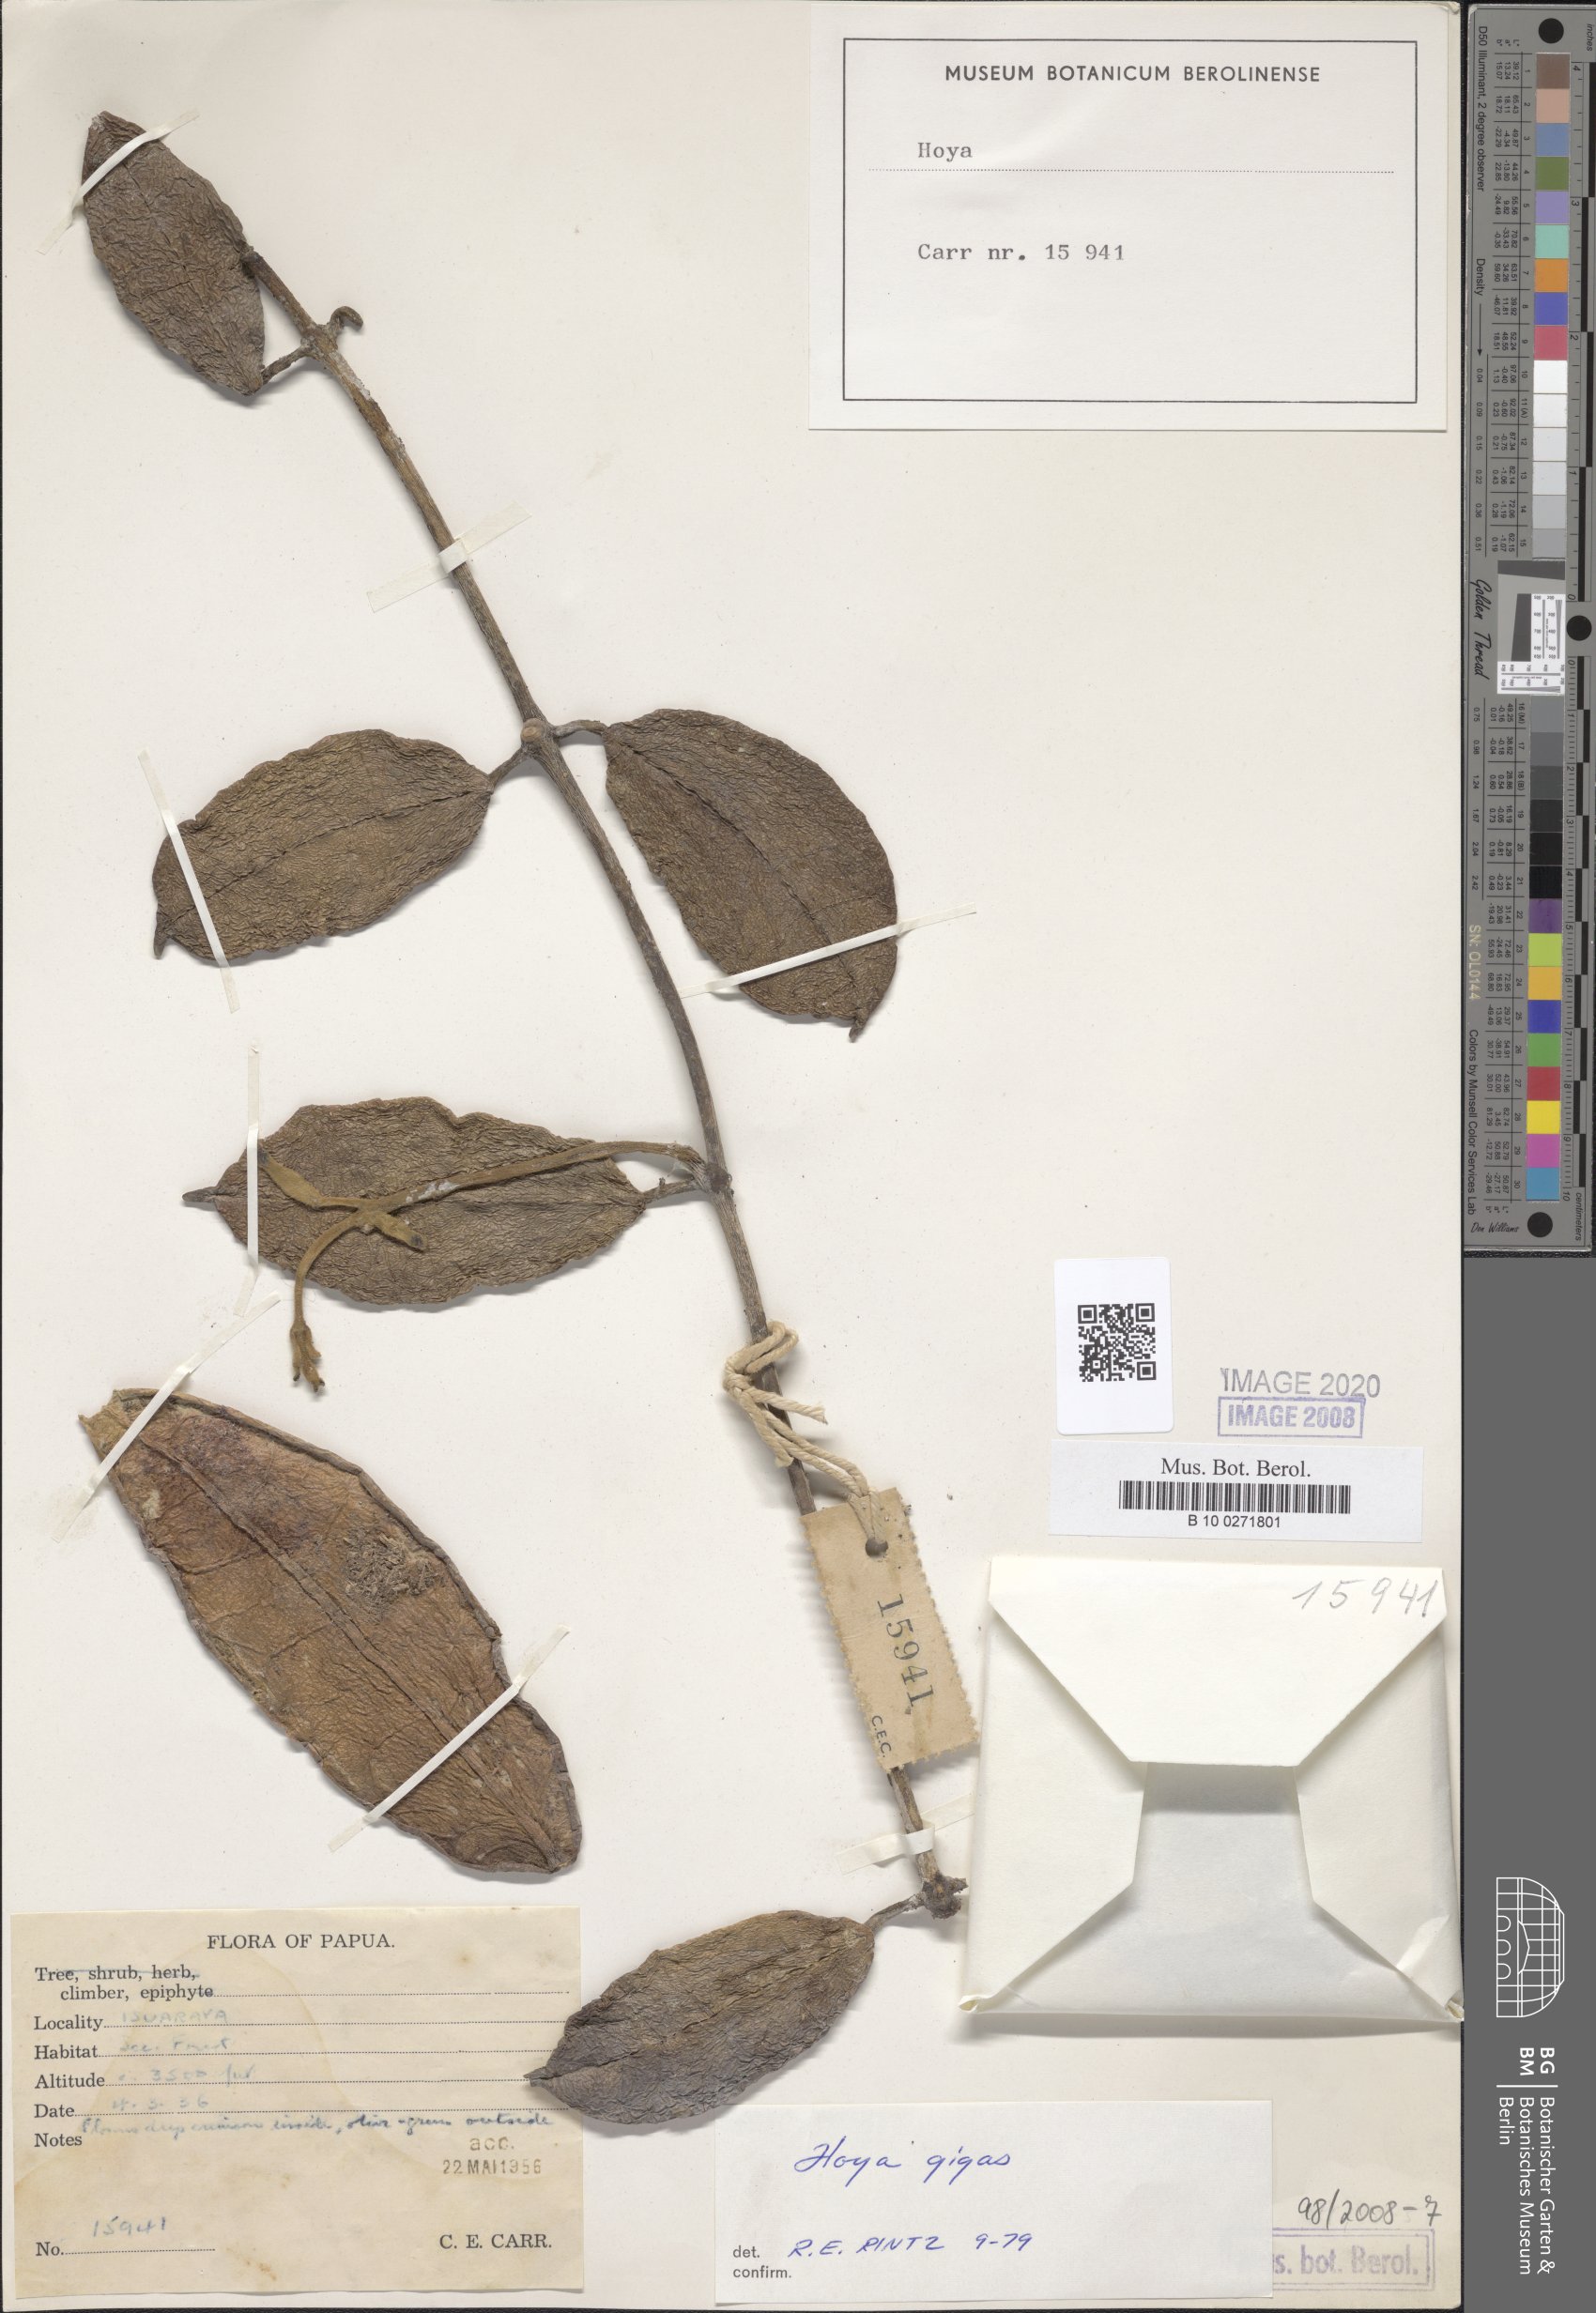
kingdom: Plantae
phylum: Tracheophyta
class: Magnoliopsida
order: Gentianales
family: Apocynaceae
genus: Eriostemma
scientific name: Eriostemma gigas
